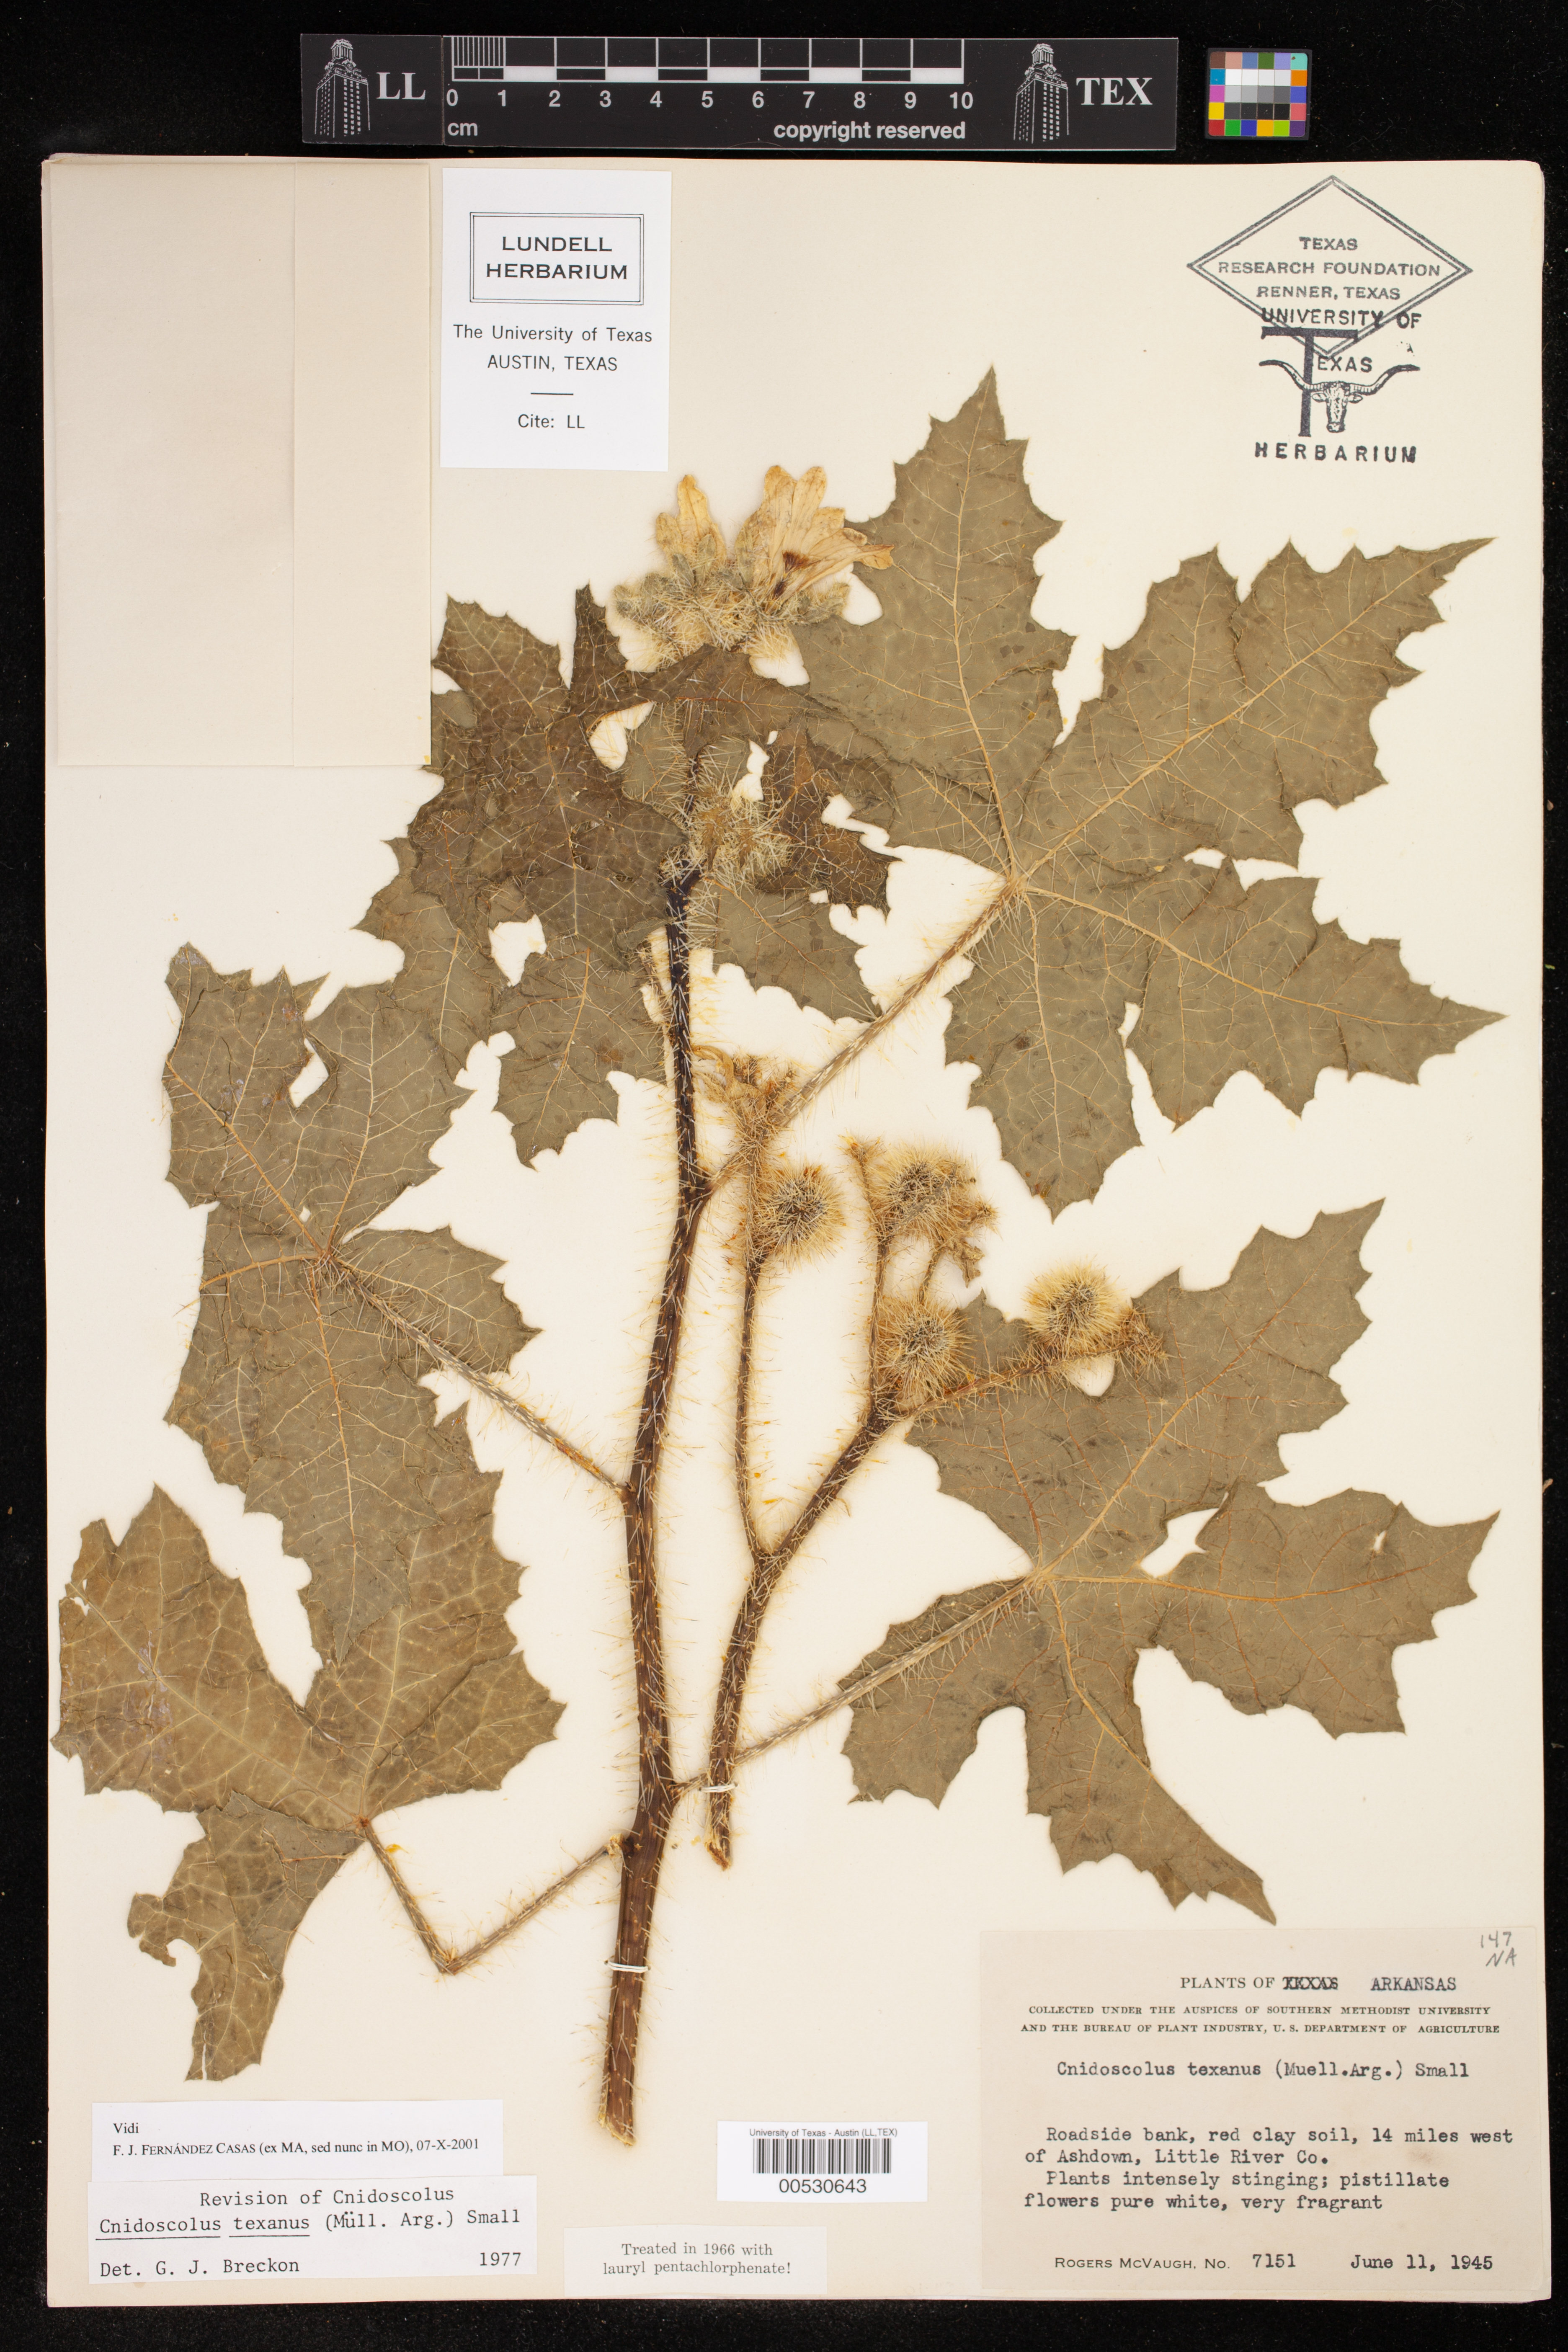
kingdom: Plantae
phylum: Tracheophyta
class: Magnoliopsida
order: Malpighiales
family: Euphorbiaceae
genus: Cnidoscolus
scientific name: Cnidoscolus texanus
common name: Texas bull-nettle
